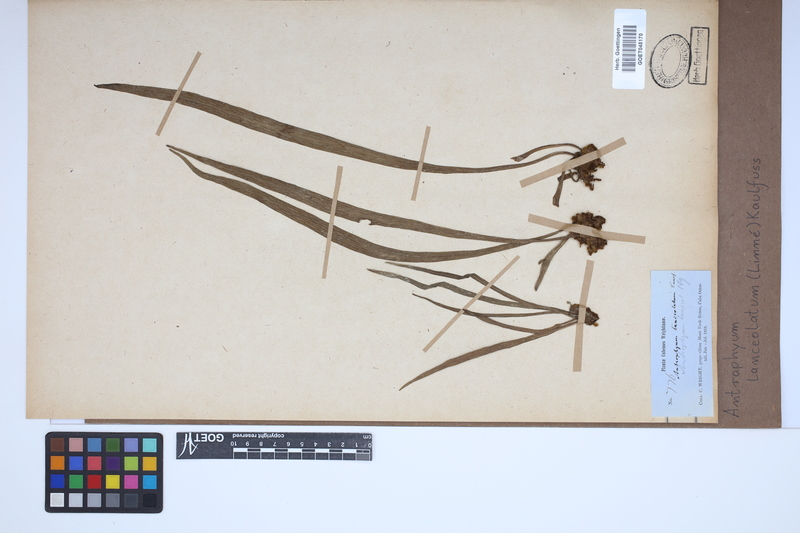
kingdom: Plantae
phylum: Tracheophyta
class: Polypodiopsida
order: Polypodiales
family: Pteridaceae
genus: Polytaenium
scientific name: Polytaenium feei
